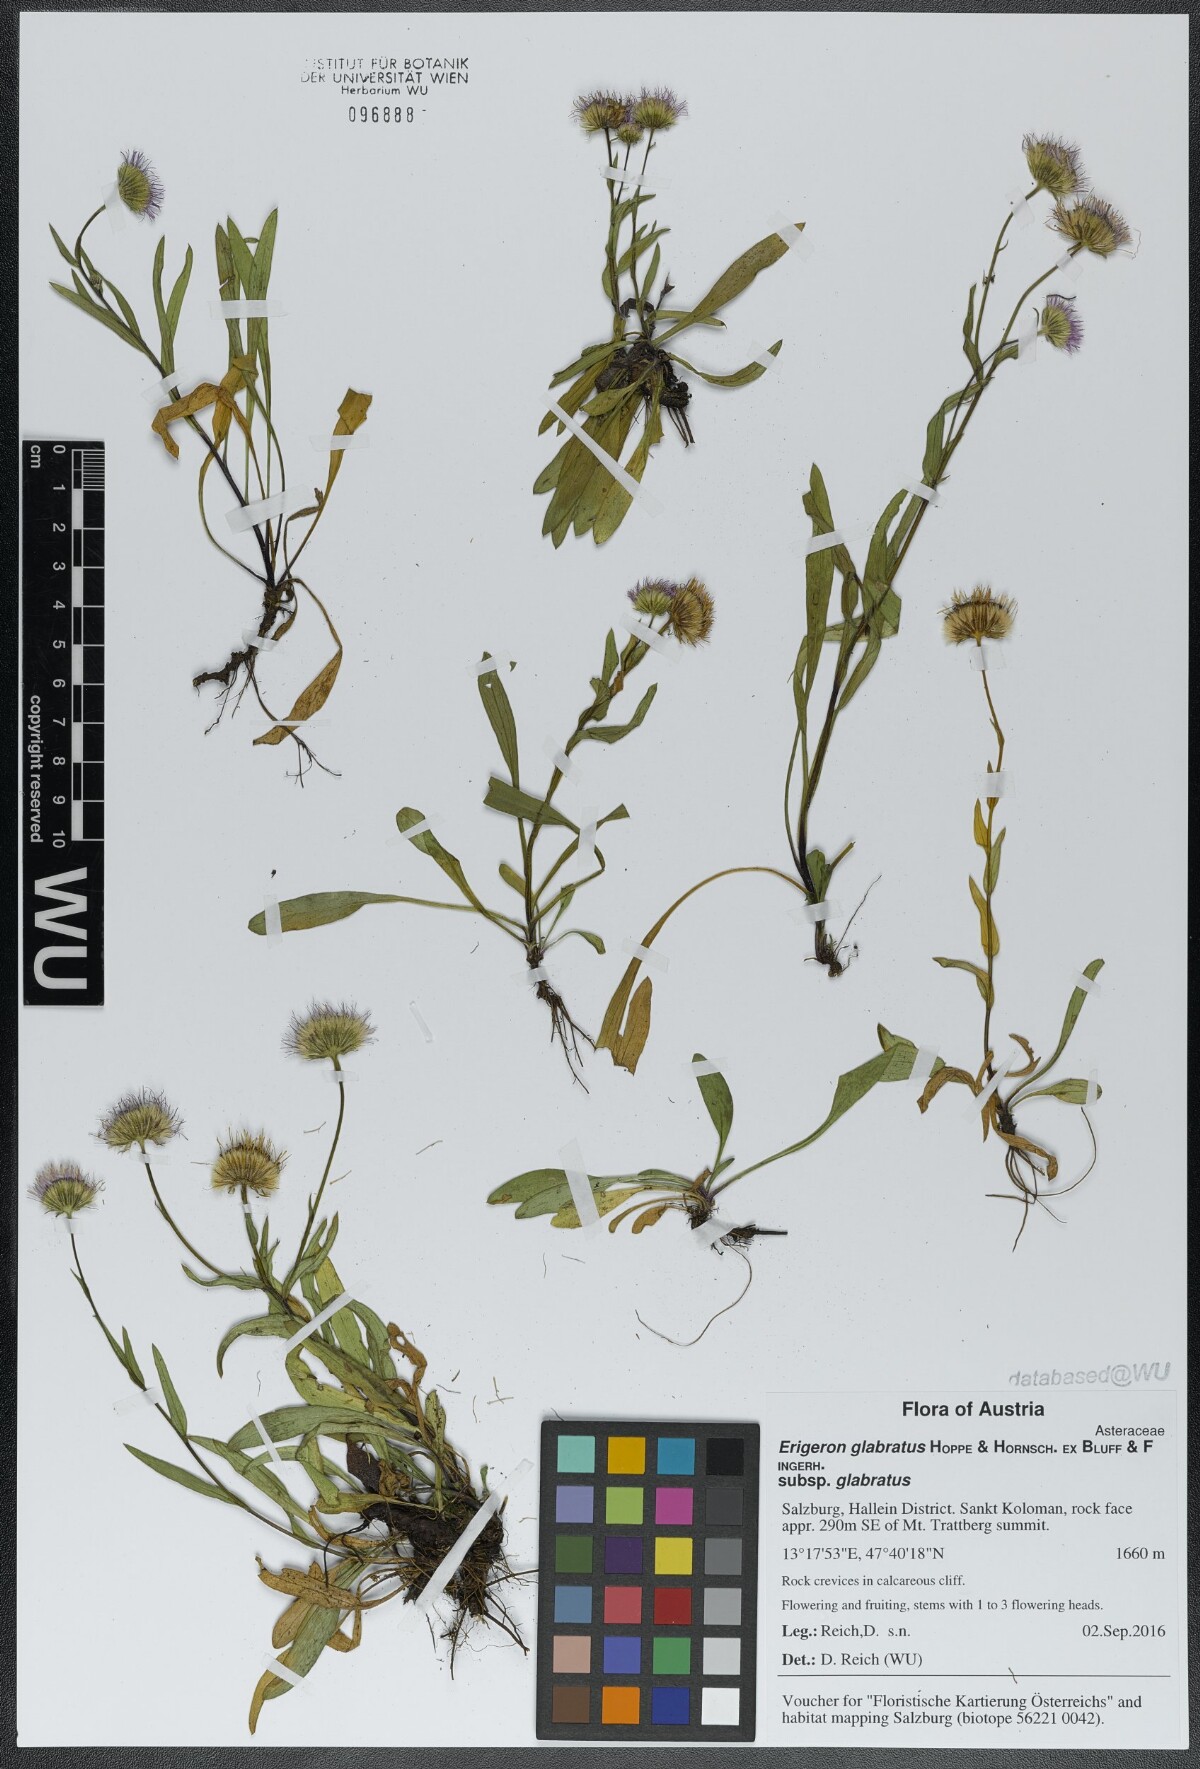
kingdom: Plantae
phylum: Tracheophyta
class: Magnoliopsida
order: Asterales
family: Asteraceae
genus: Erigeron
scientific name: Erigeron glabratus
